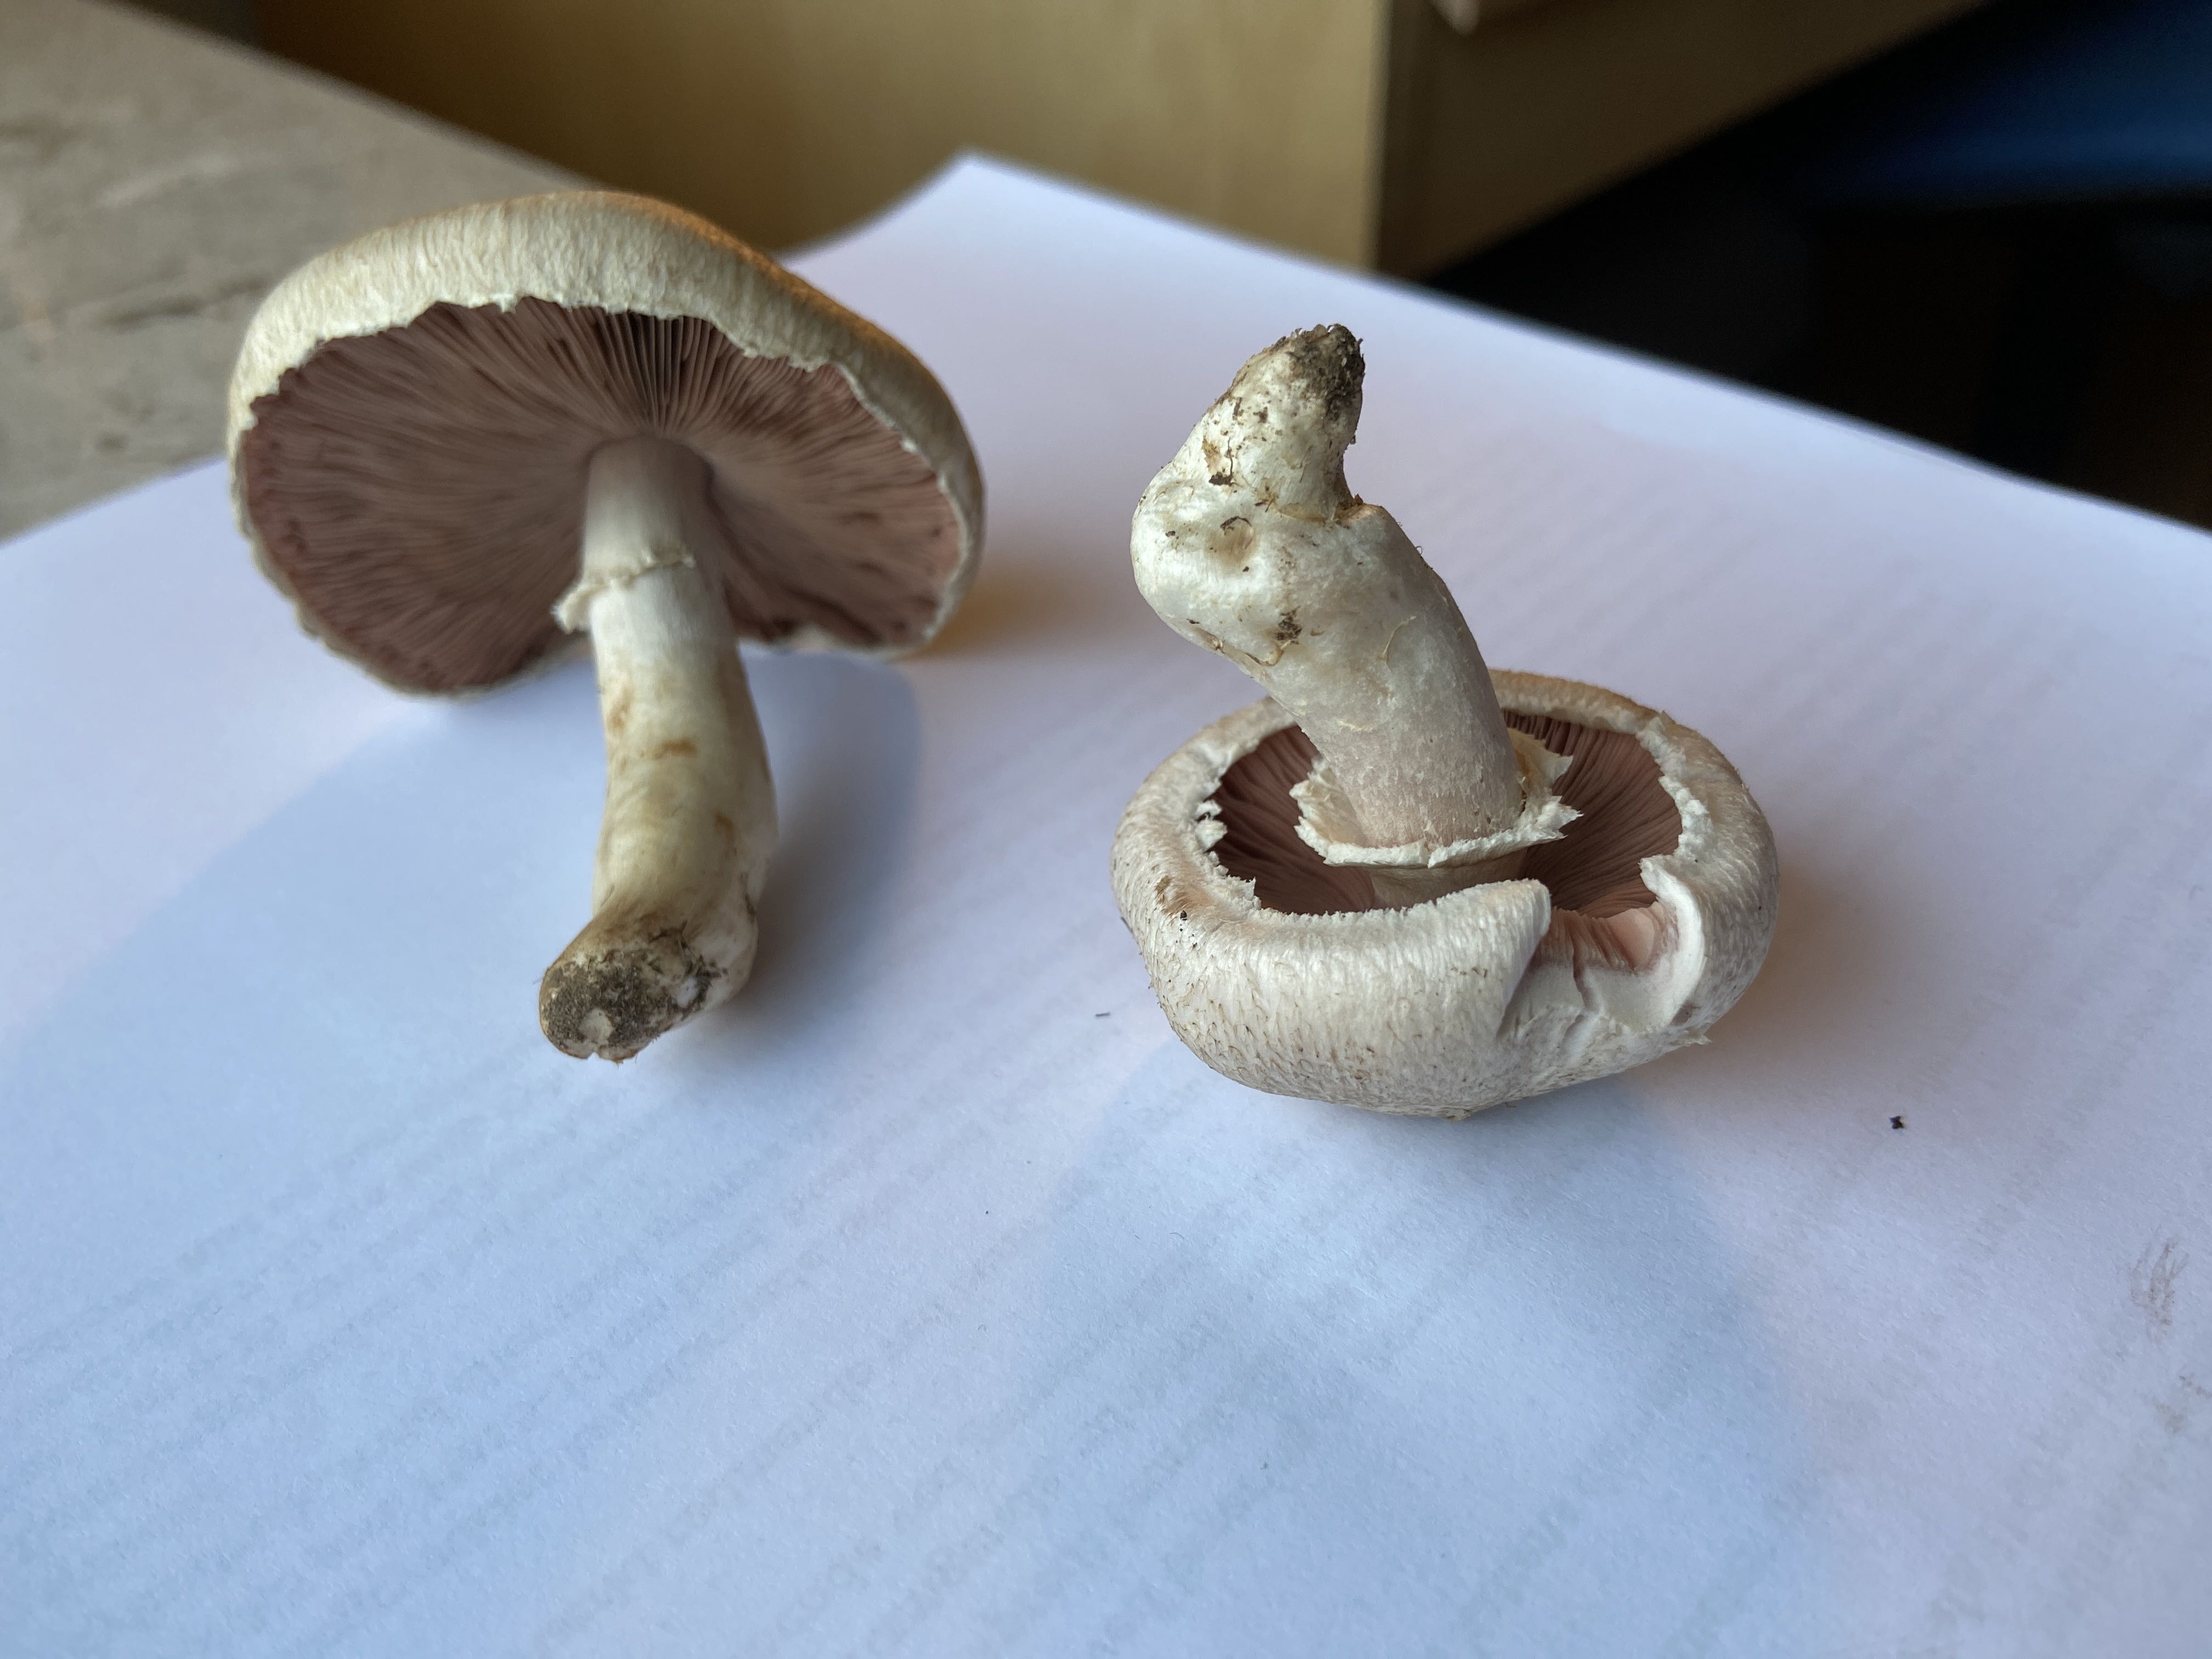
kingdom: Fungi
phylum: Basidiomycota
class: Agaricomycetes
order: Agaricales
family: Agaricaceae
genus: Agaricus
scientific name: Agaricus campestris
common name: mark-champignon
